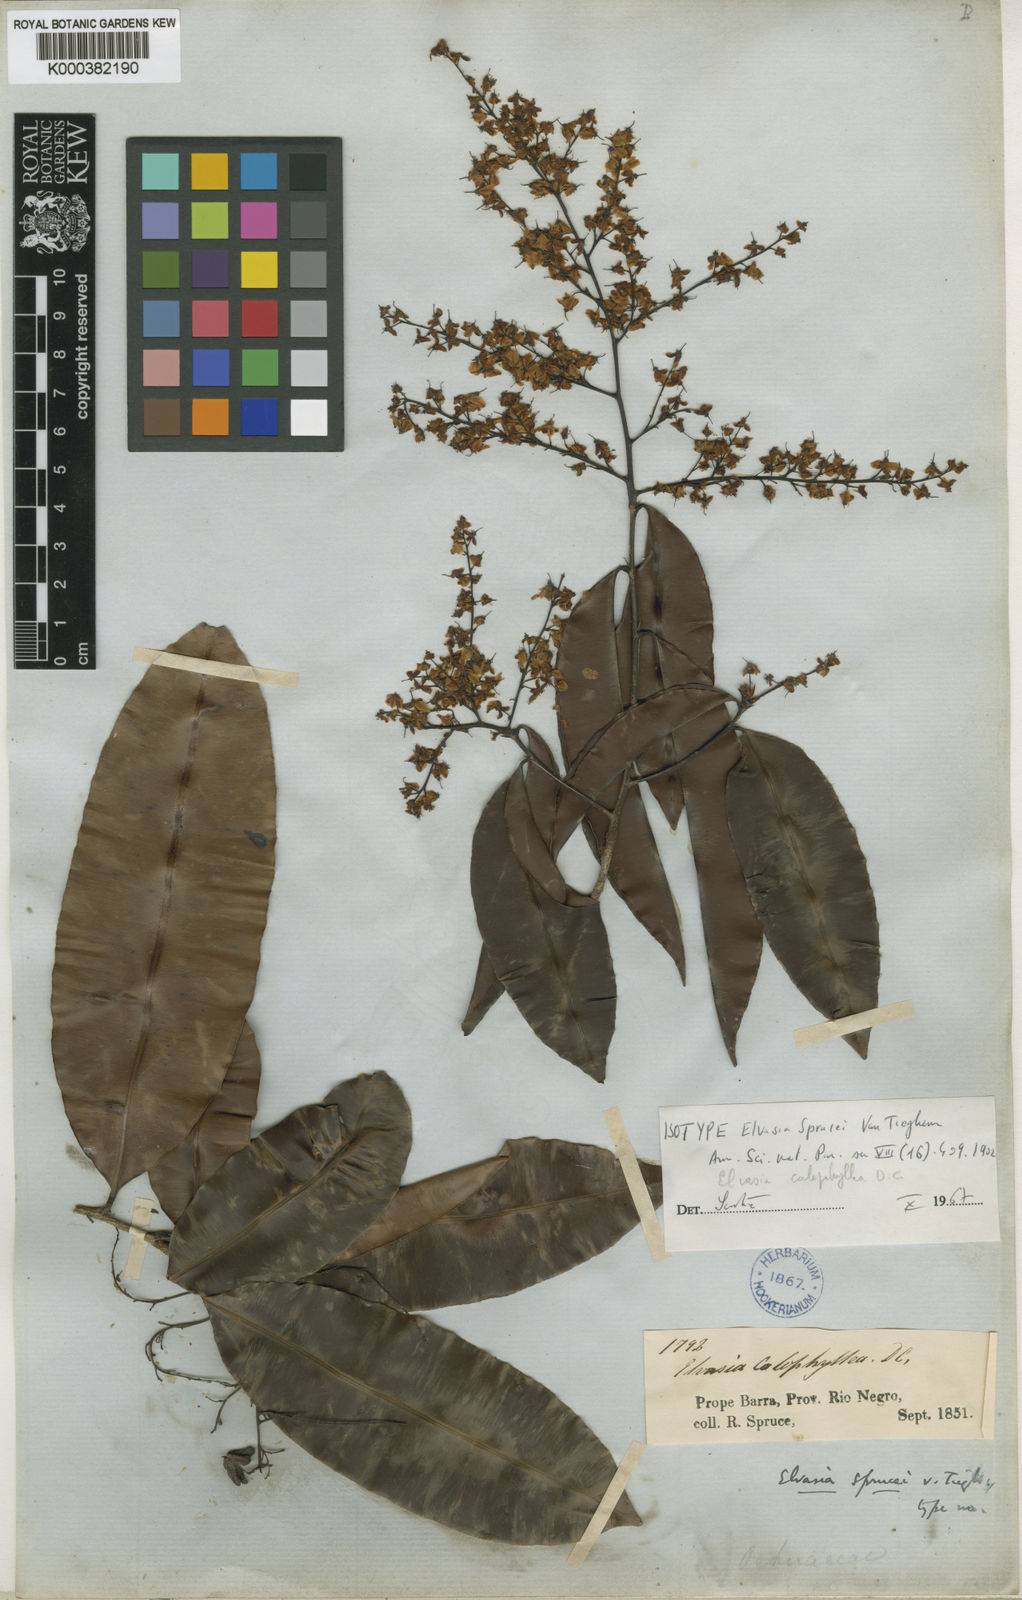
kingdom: Plantae
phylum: Tracheophyta
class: Magnoliopsida
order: Malpighiales
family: Ochnaceae
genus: Elvasia
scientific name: Elvasia calophyllea
